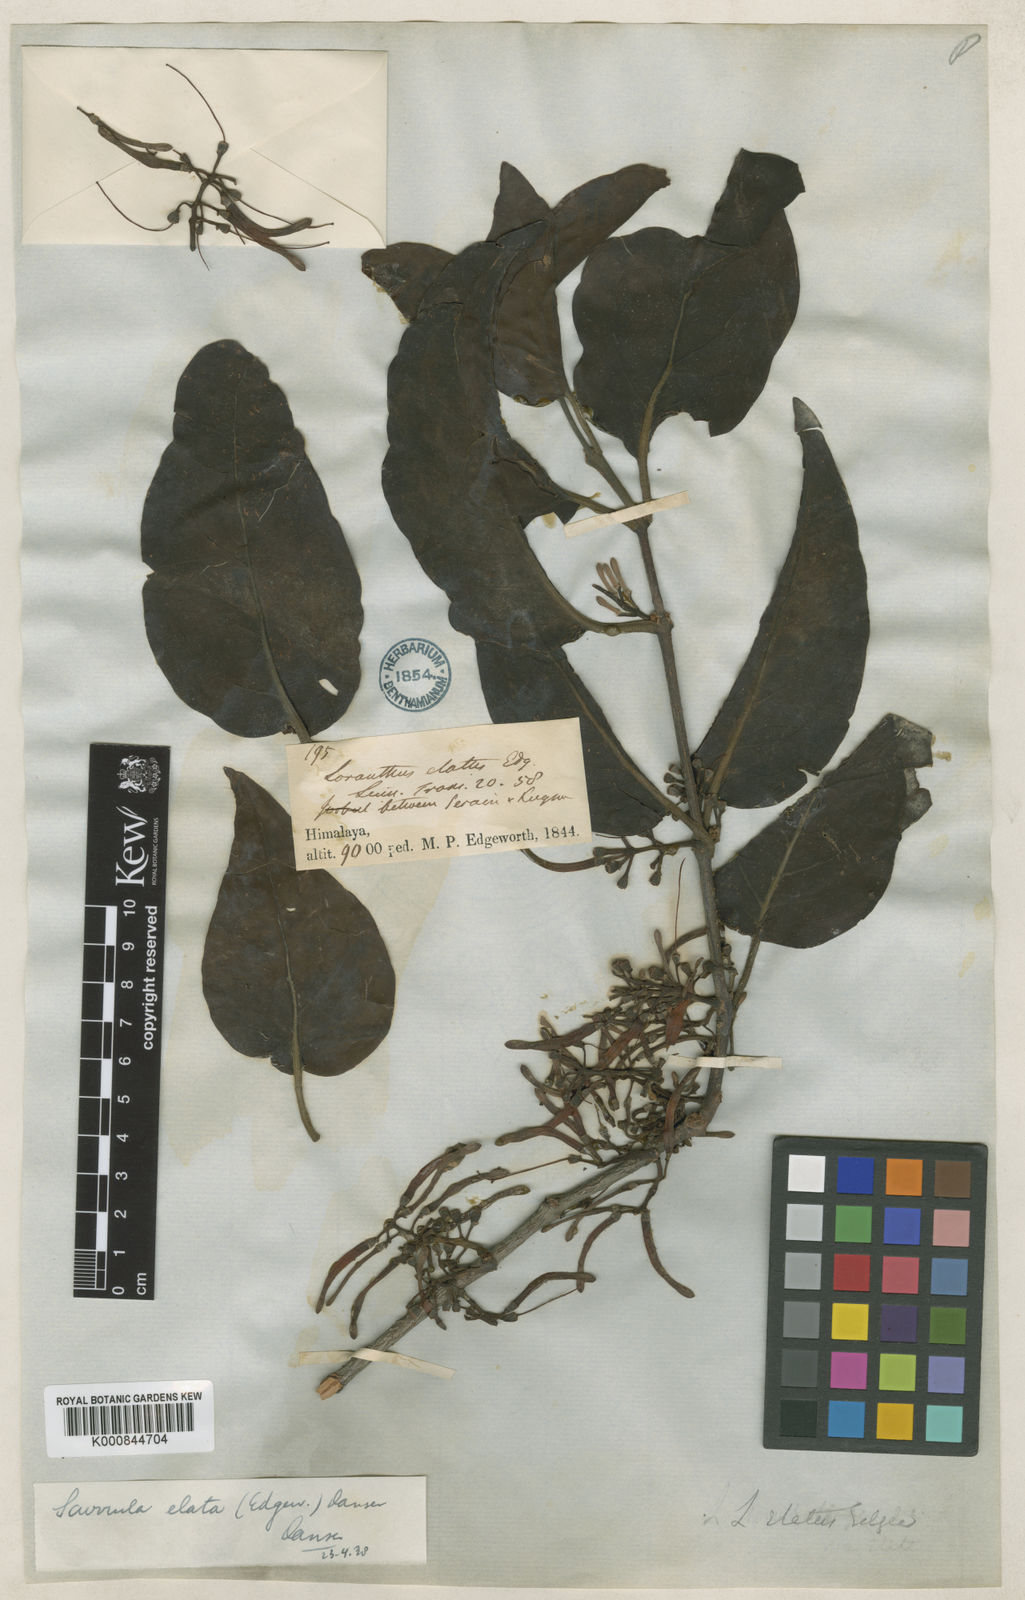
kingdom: Plantae
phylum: Tracheophyta
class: Magnoliopsida
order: Santalales
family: Loranthaceae
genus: Scurrula
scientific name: Scurrula elata
